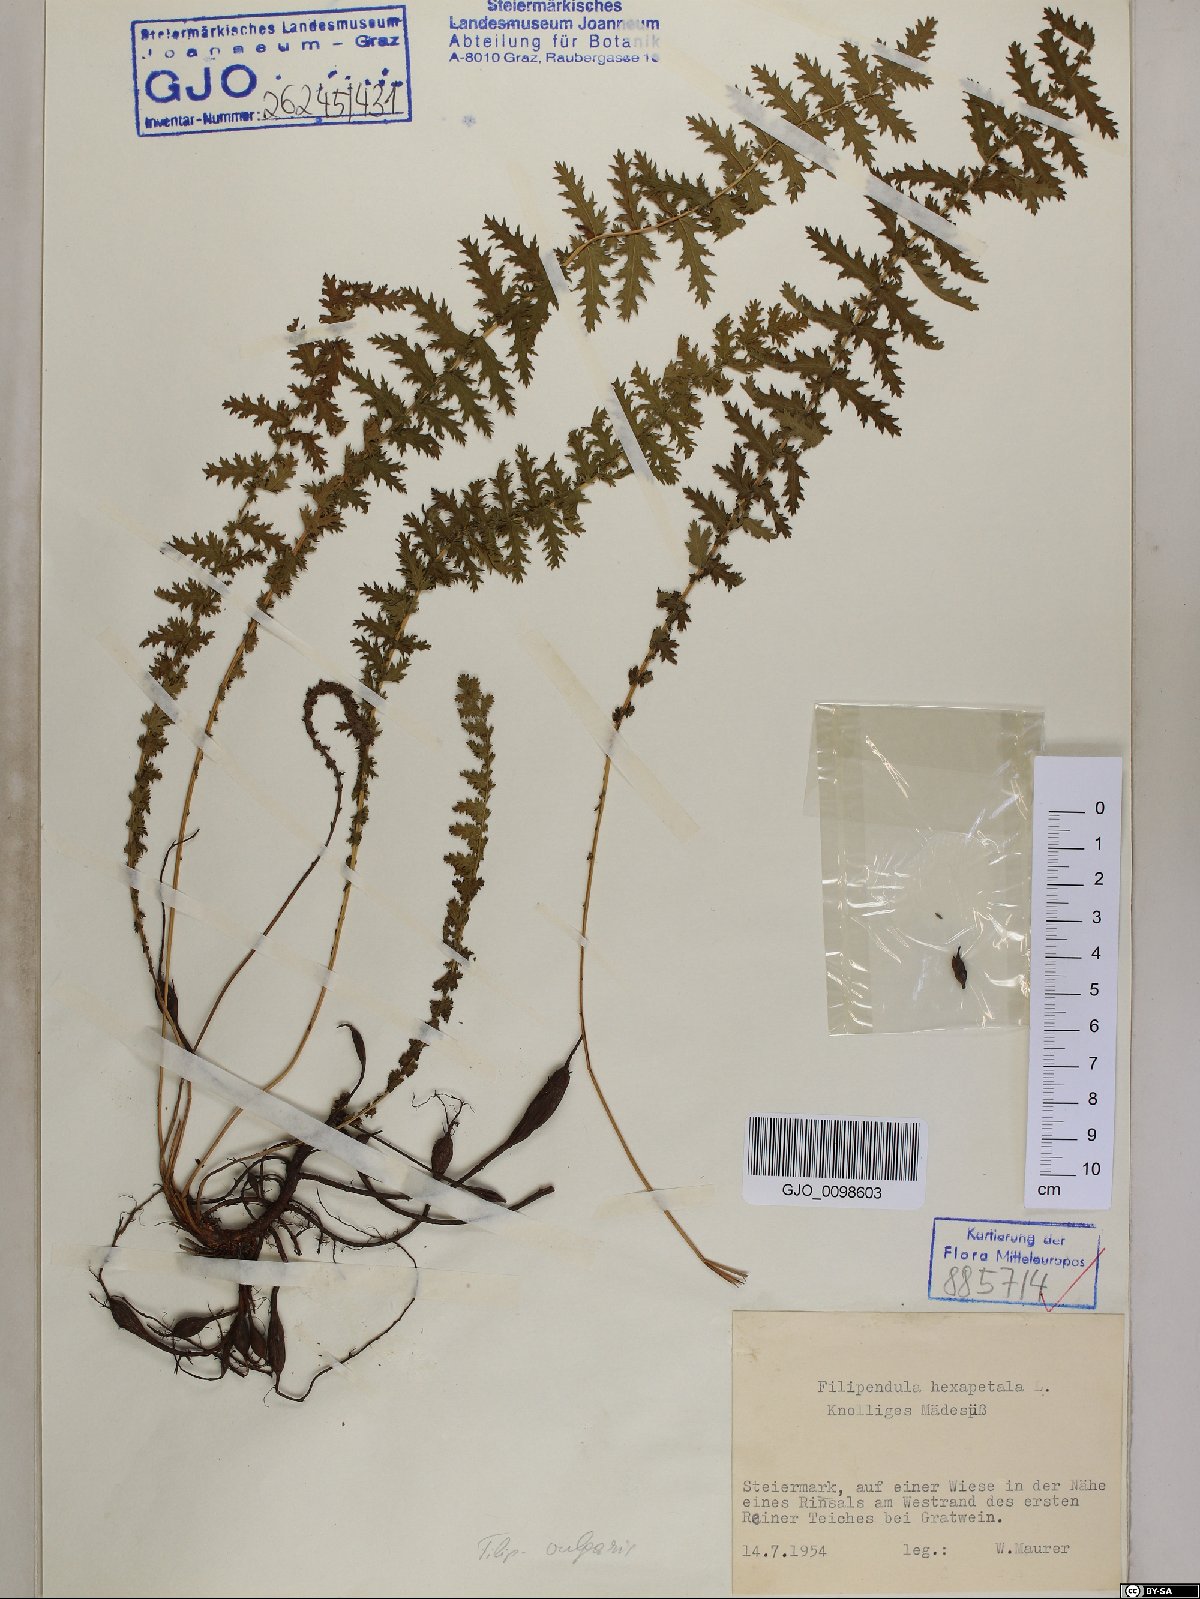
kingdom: Plantae
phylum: Tracheophyta
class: Magnoliopsida
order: Rosales
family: Rosaceae
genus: Filipendula
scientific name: Filipendula vulgaris
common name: Dropwort
